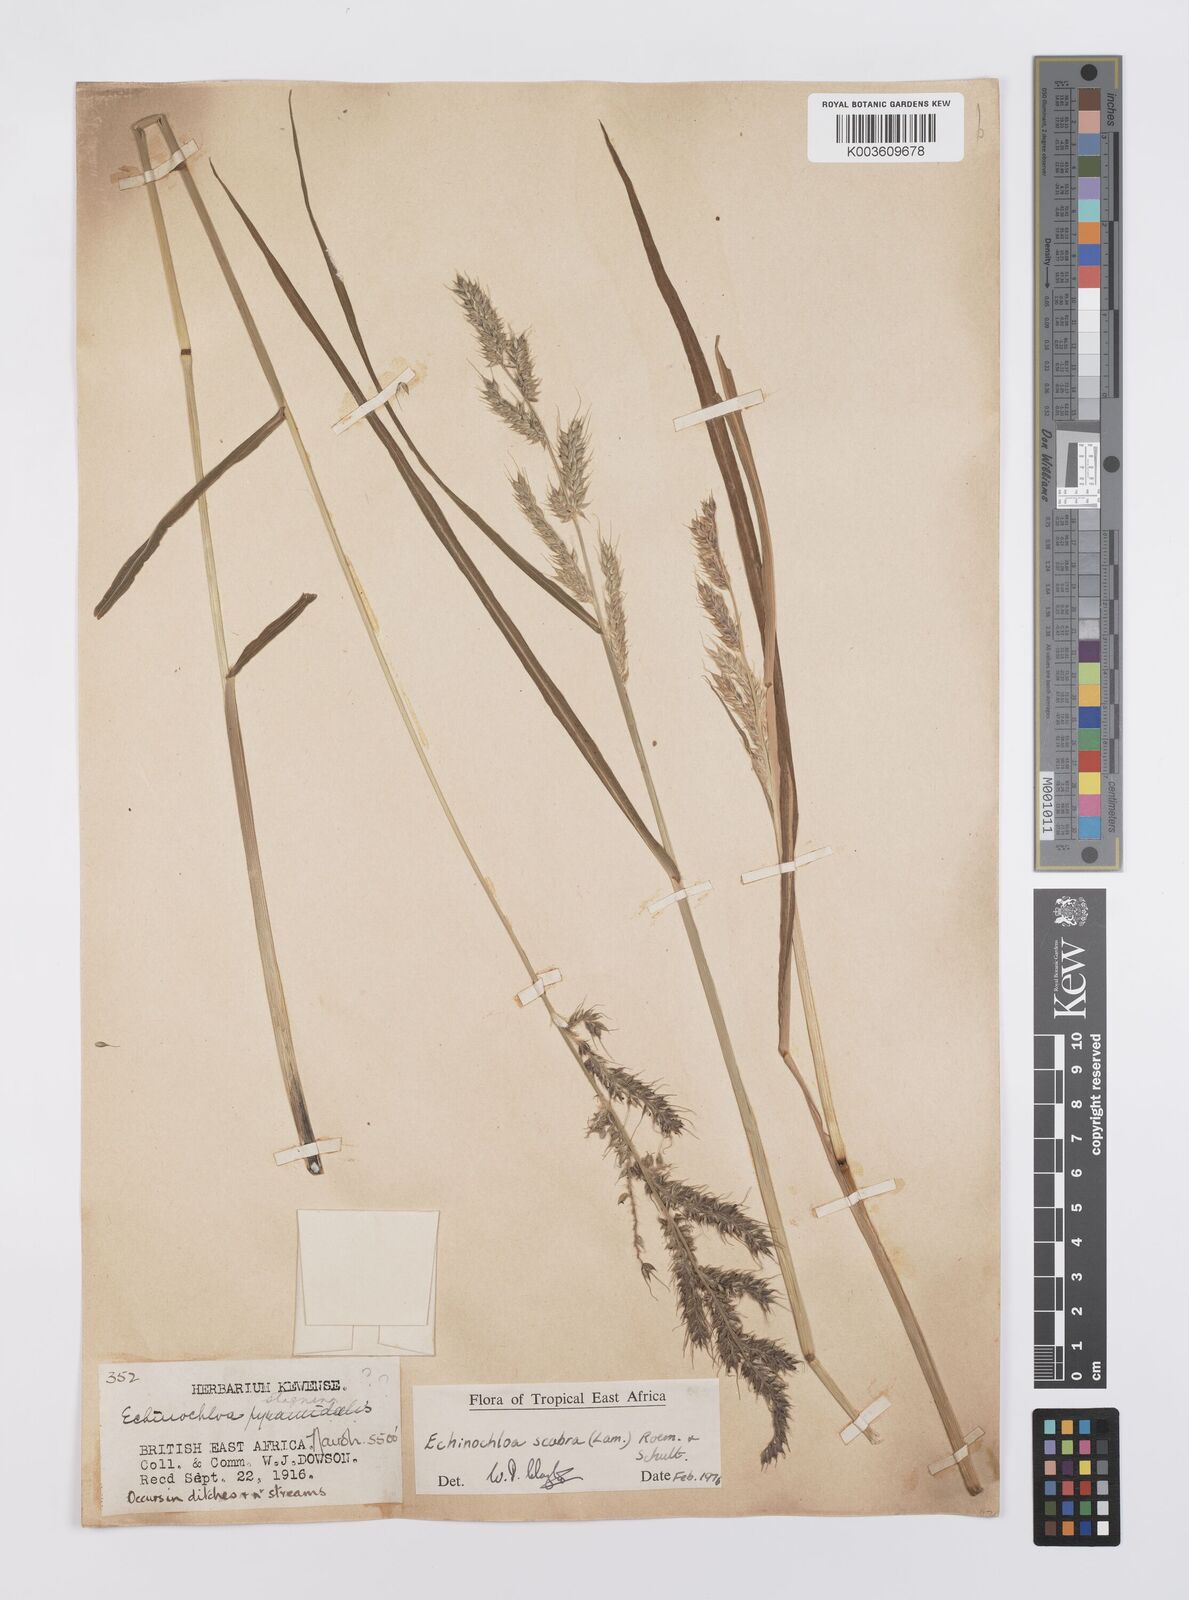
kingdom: Plantae
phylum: Tracheophyta
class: Liliopsida
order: Poales
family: Poaceae
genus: Echinochloa
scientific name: Echinochloa stagnina
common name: Burgu grass
